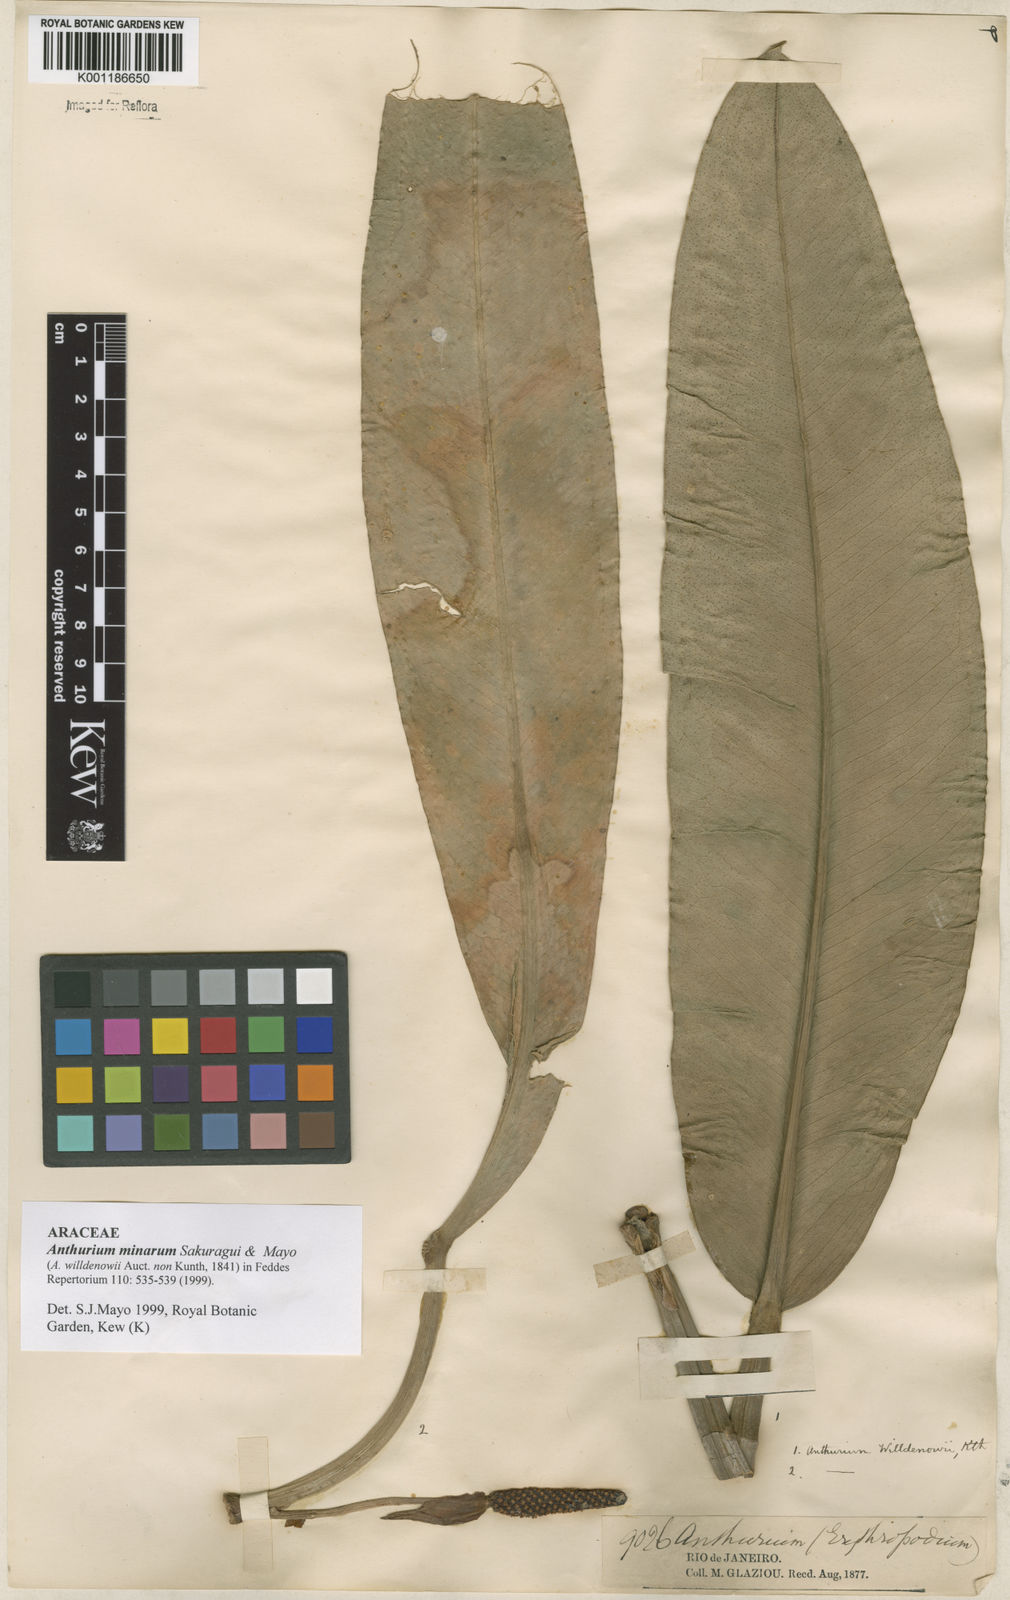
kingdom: Plantae
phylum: Tracheophyta
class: Liliopsida
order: Alismatales
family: Araceae
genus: Anthurium
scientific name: Anthurium minarum
